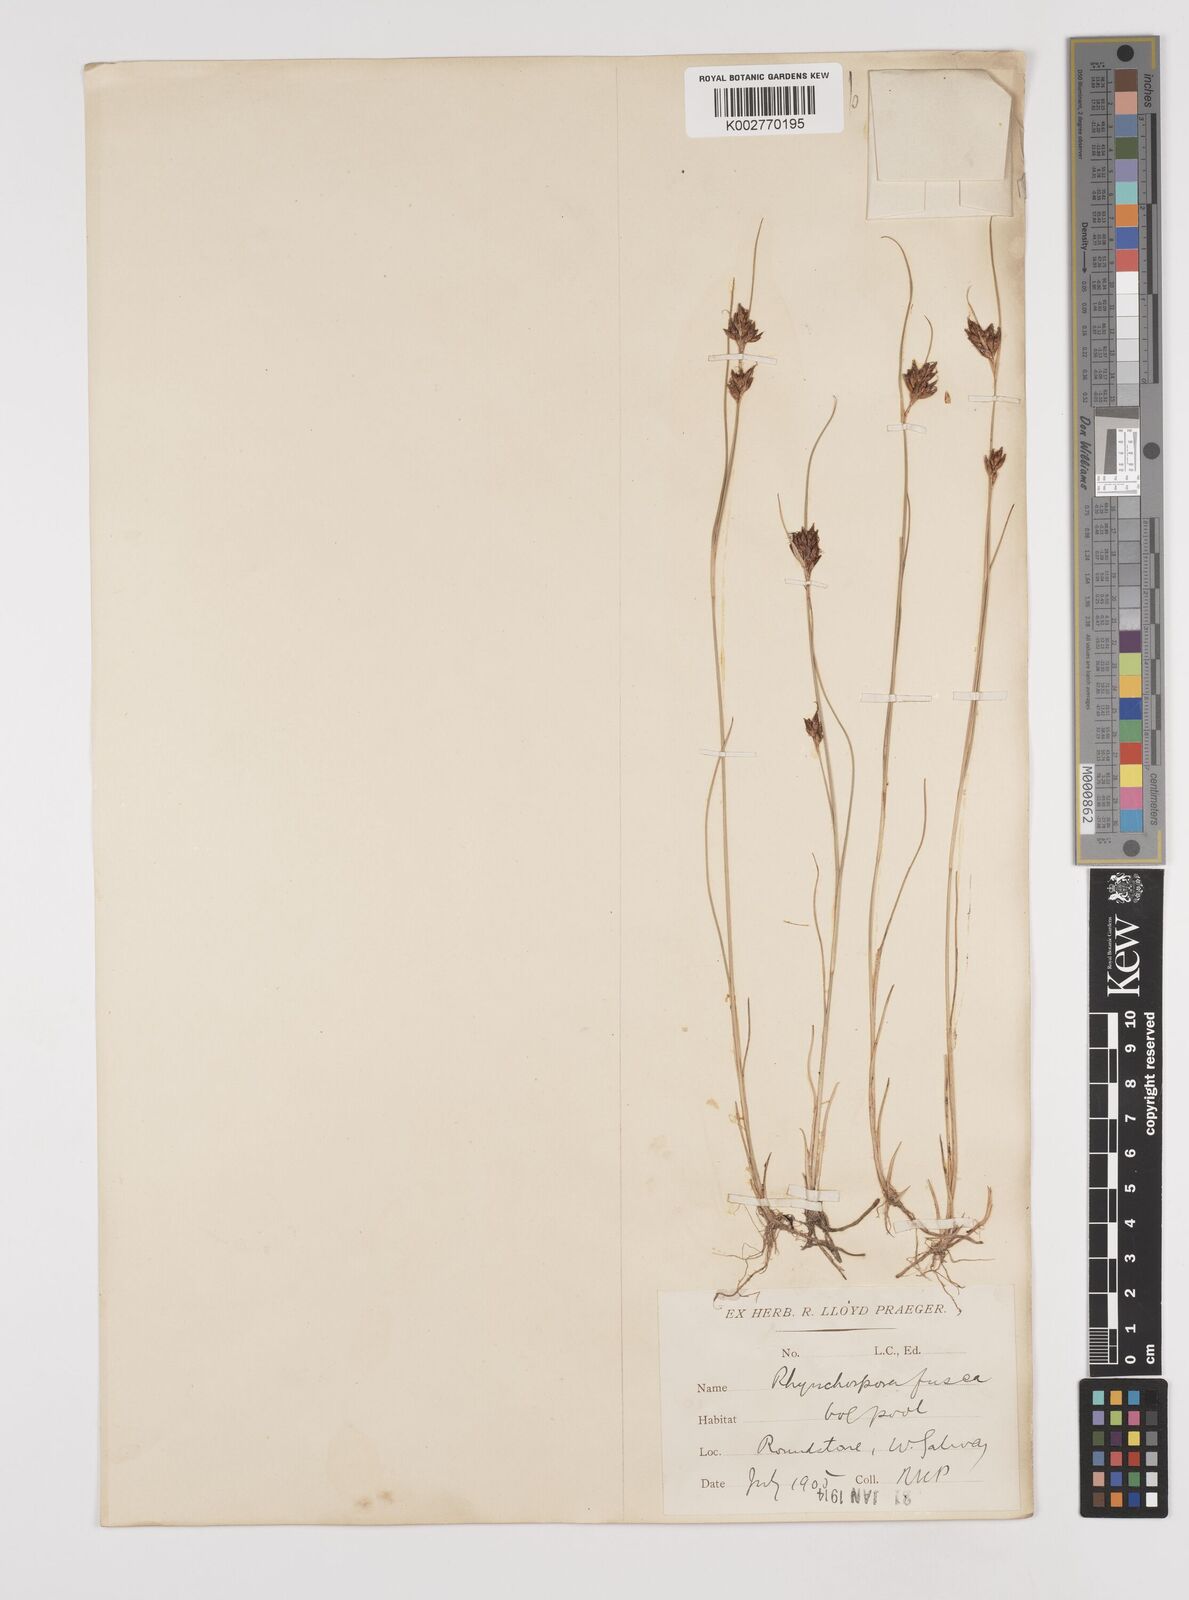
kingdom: Plantae
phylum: Tracheophyta
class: Liliopsida
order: Poales
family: Cyperaceae
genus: Rhynchospora
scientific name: Rhynchospora fusca
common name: Brown beak-sedge
